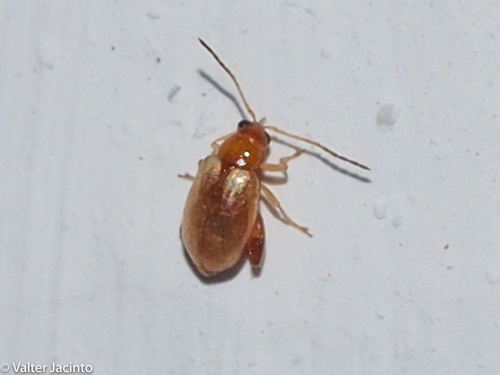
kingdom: Animalia
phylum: Arthropoda
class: Insecta
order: Coleoptera
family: Chrysomelidae
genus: Longitarsus
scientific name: Longitarsus
